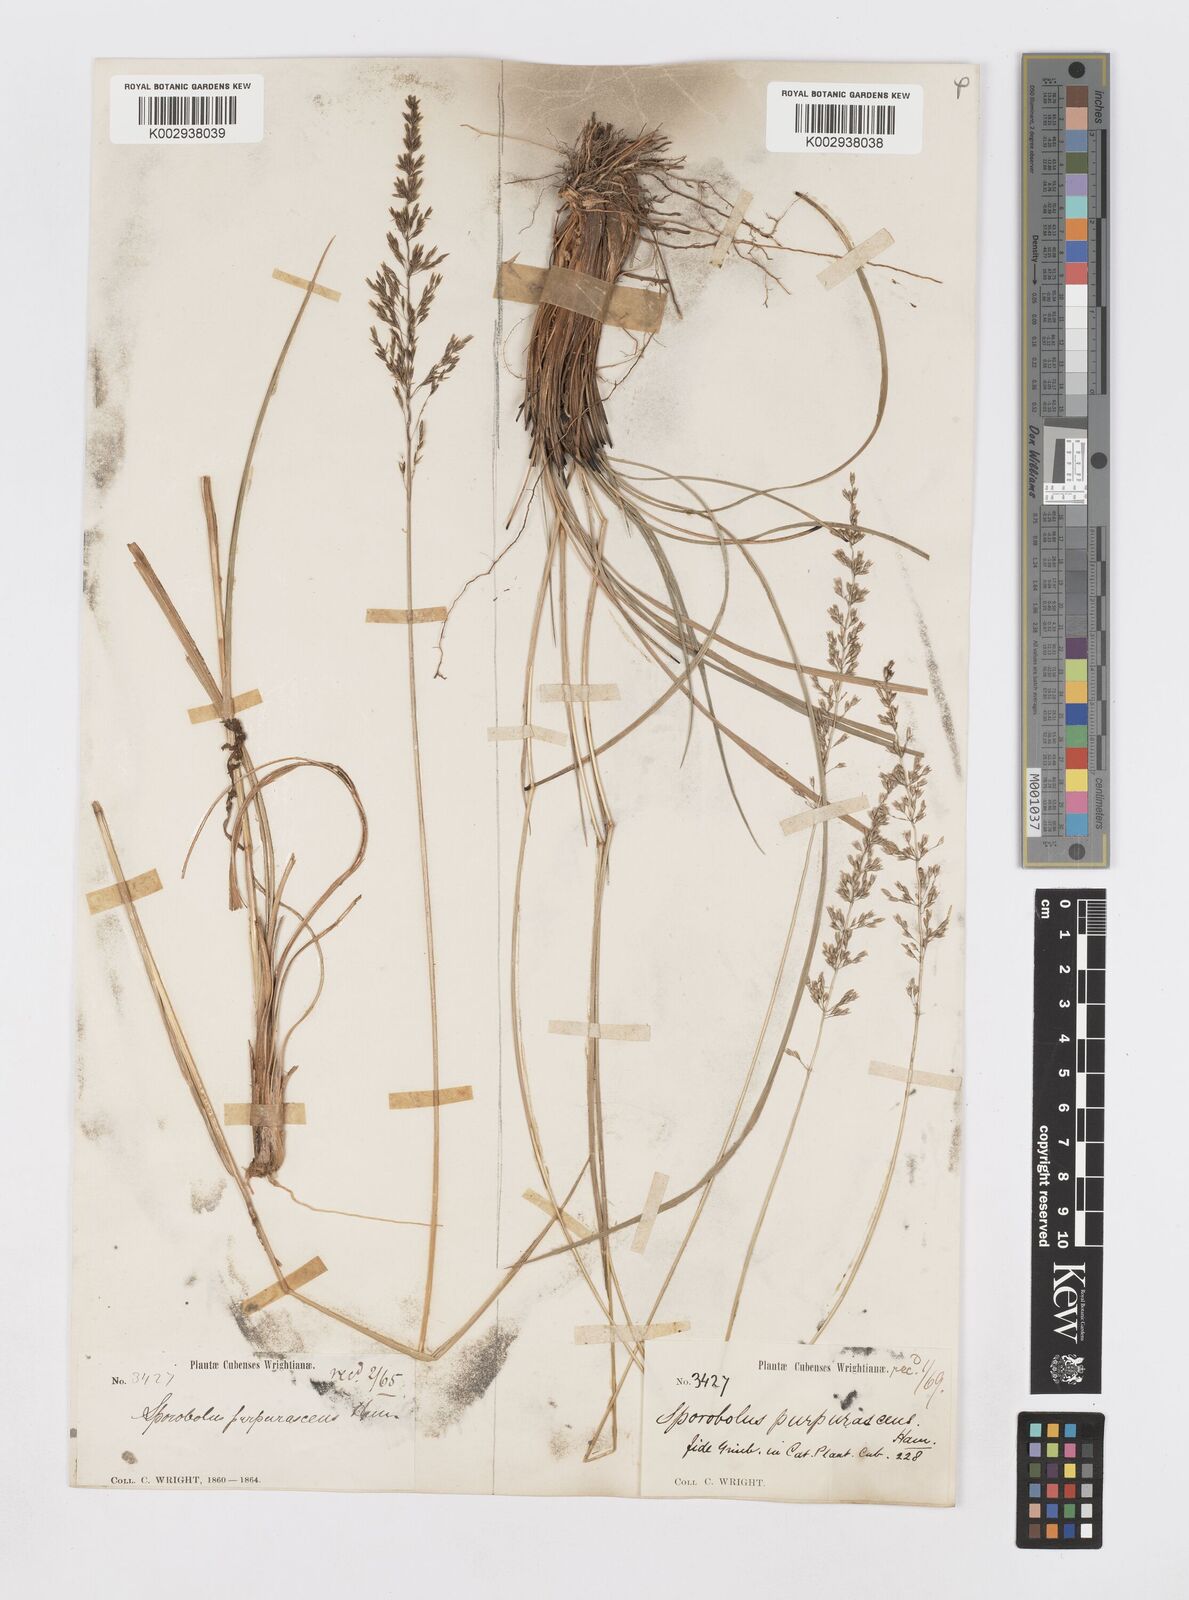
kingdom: Plantae
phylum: Tracheophyta
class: Liliopsida
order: Poales
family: Poaceae
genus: Sporobolus
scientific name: Sporobolus purpurascens
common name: Purple dropseed
